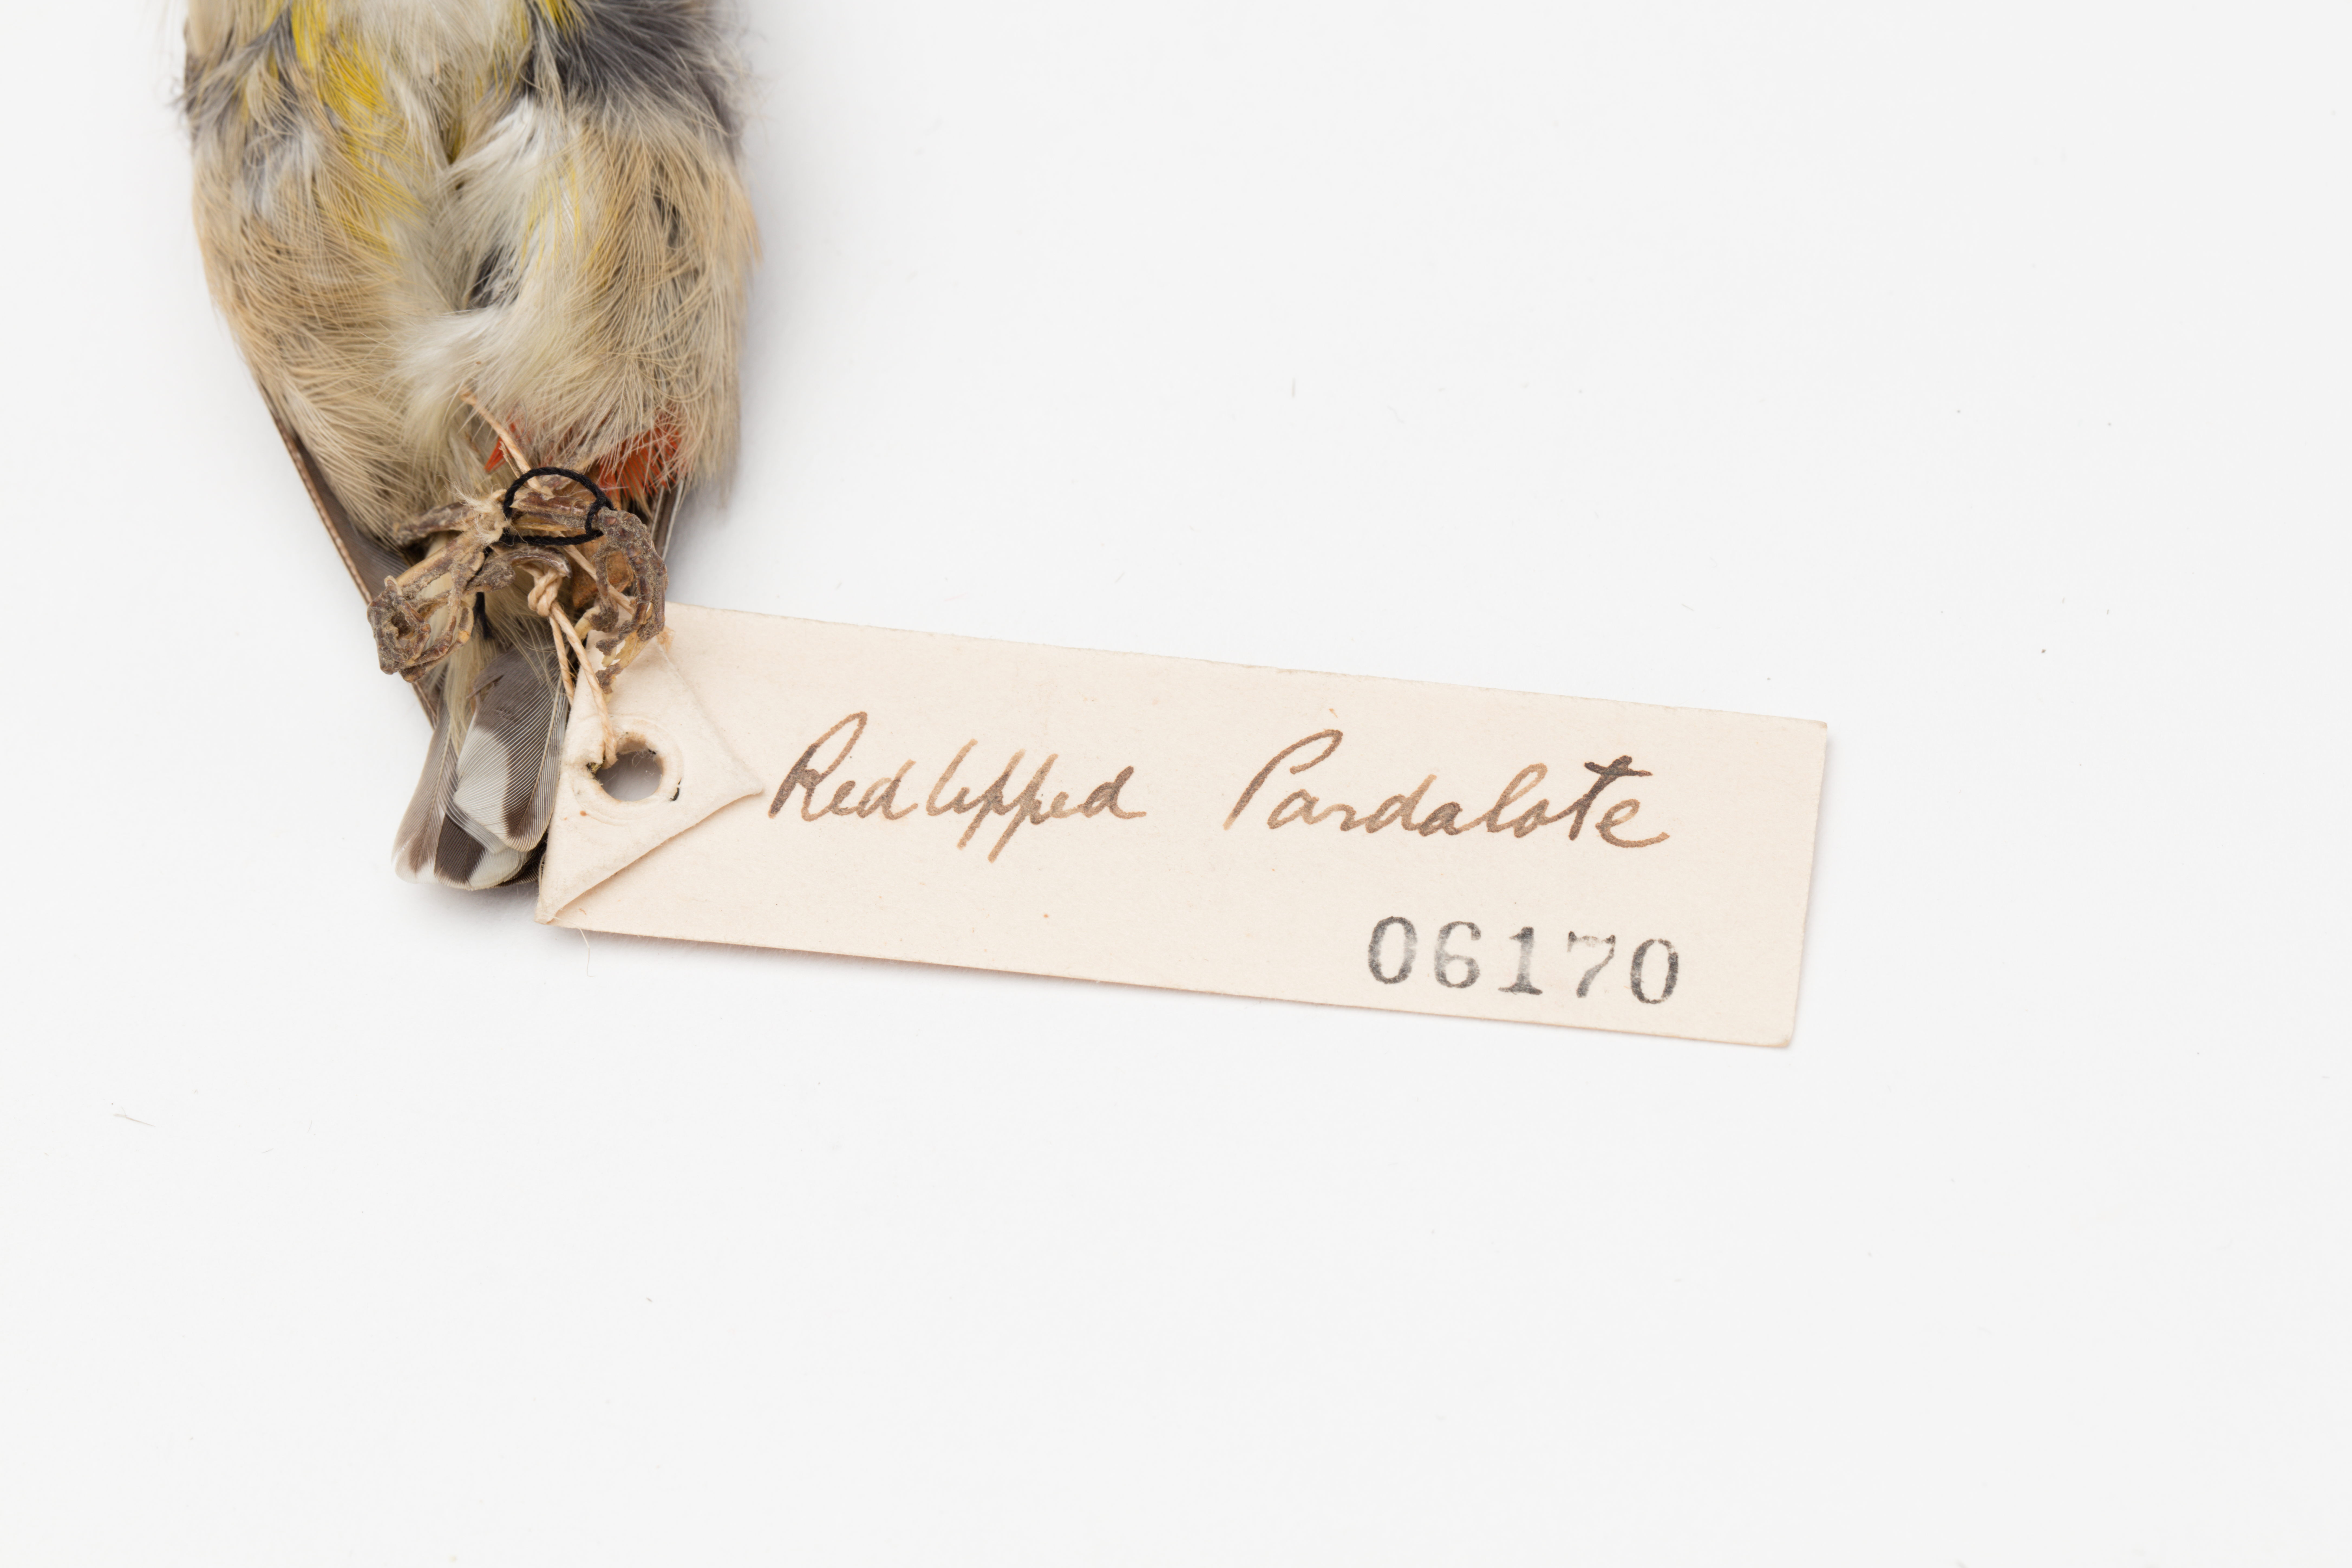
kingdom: Animalia
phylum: Chordata
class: Aves
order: Passeriformes
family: Pardalotidae
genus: Pardalotus
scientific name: Pardalotus striatus
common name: Striated pardalote
